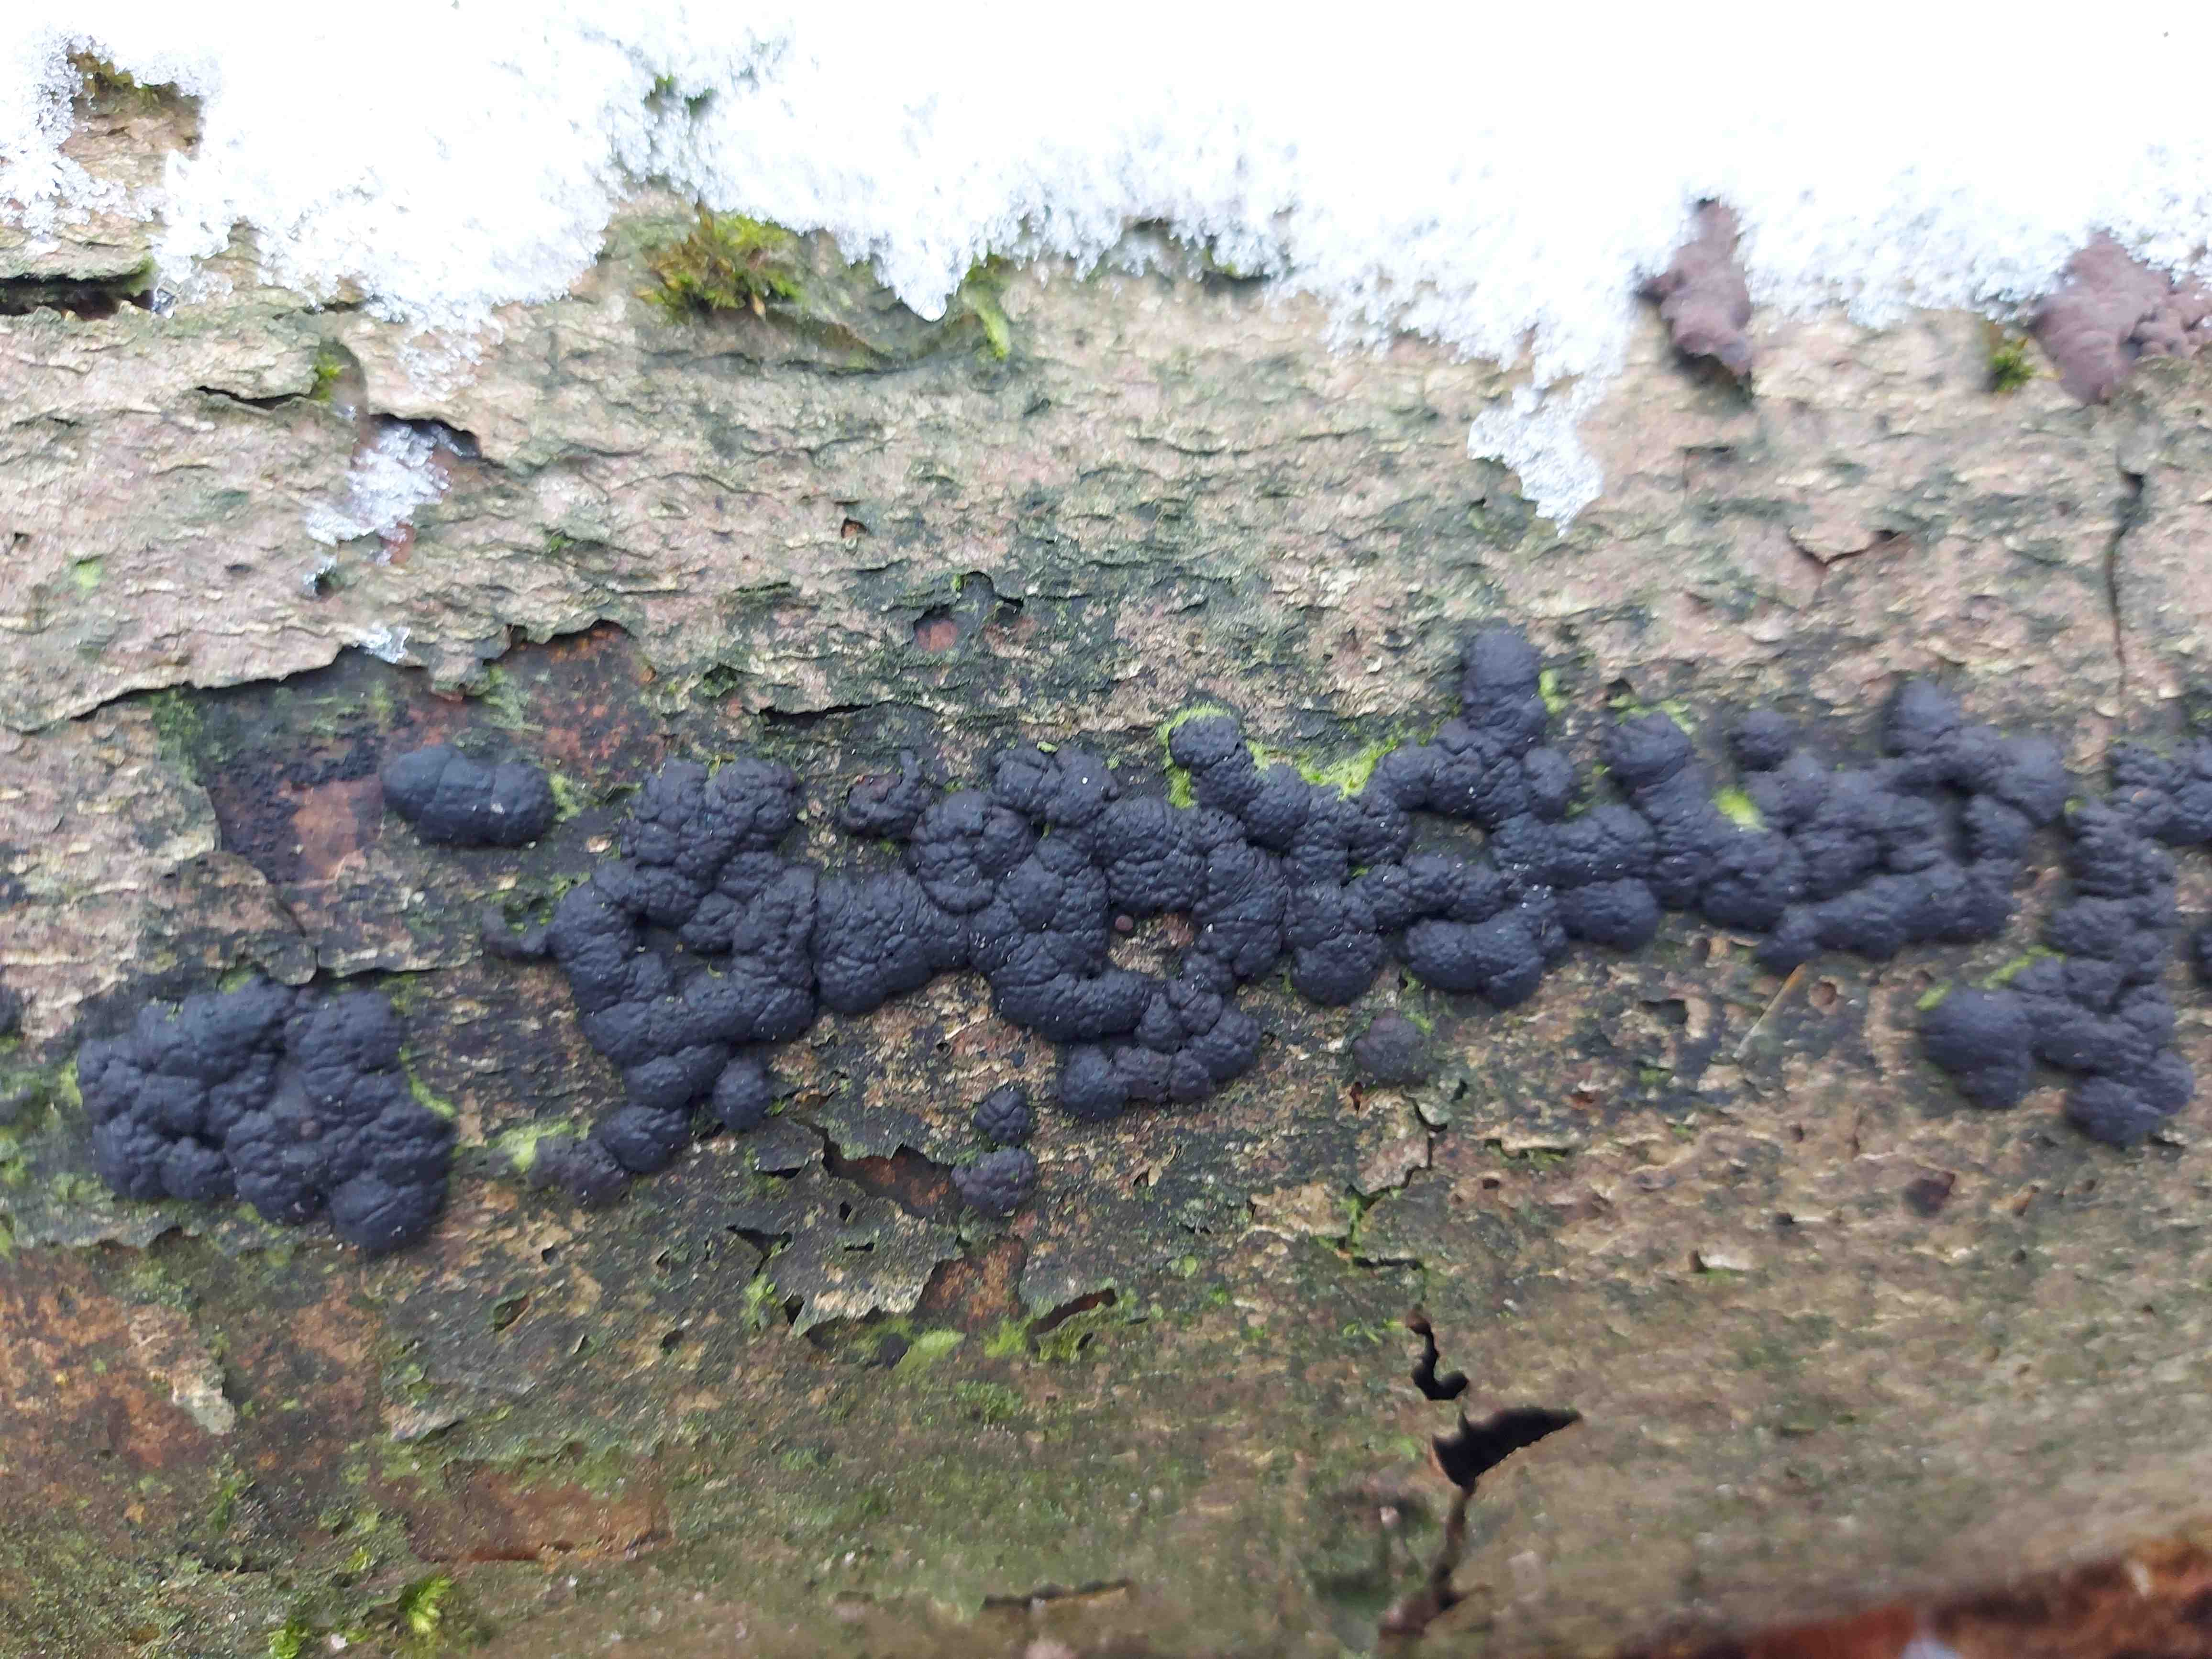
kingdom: Fungi
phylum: Ascomycota
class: Sordariomycetes
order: Xylariales
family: Hypoxylaceae
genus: Jackrogersella
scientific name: Jackrogersella cohaerens
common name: sammenflydende kulbær
